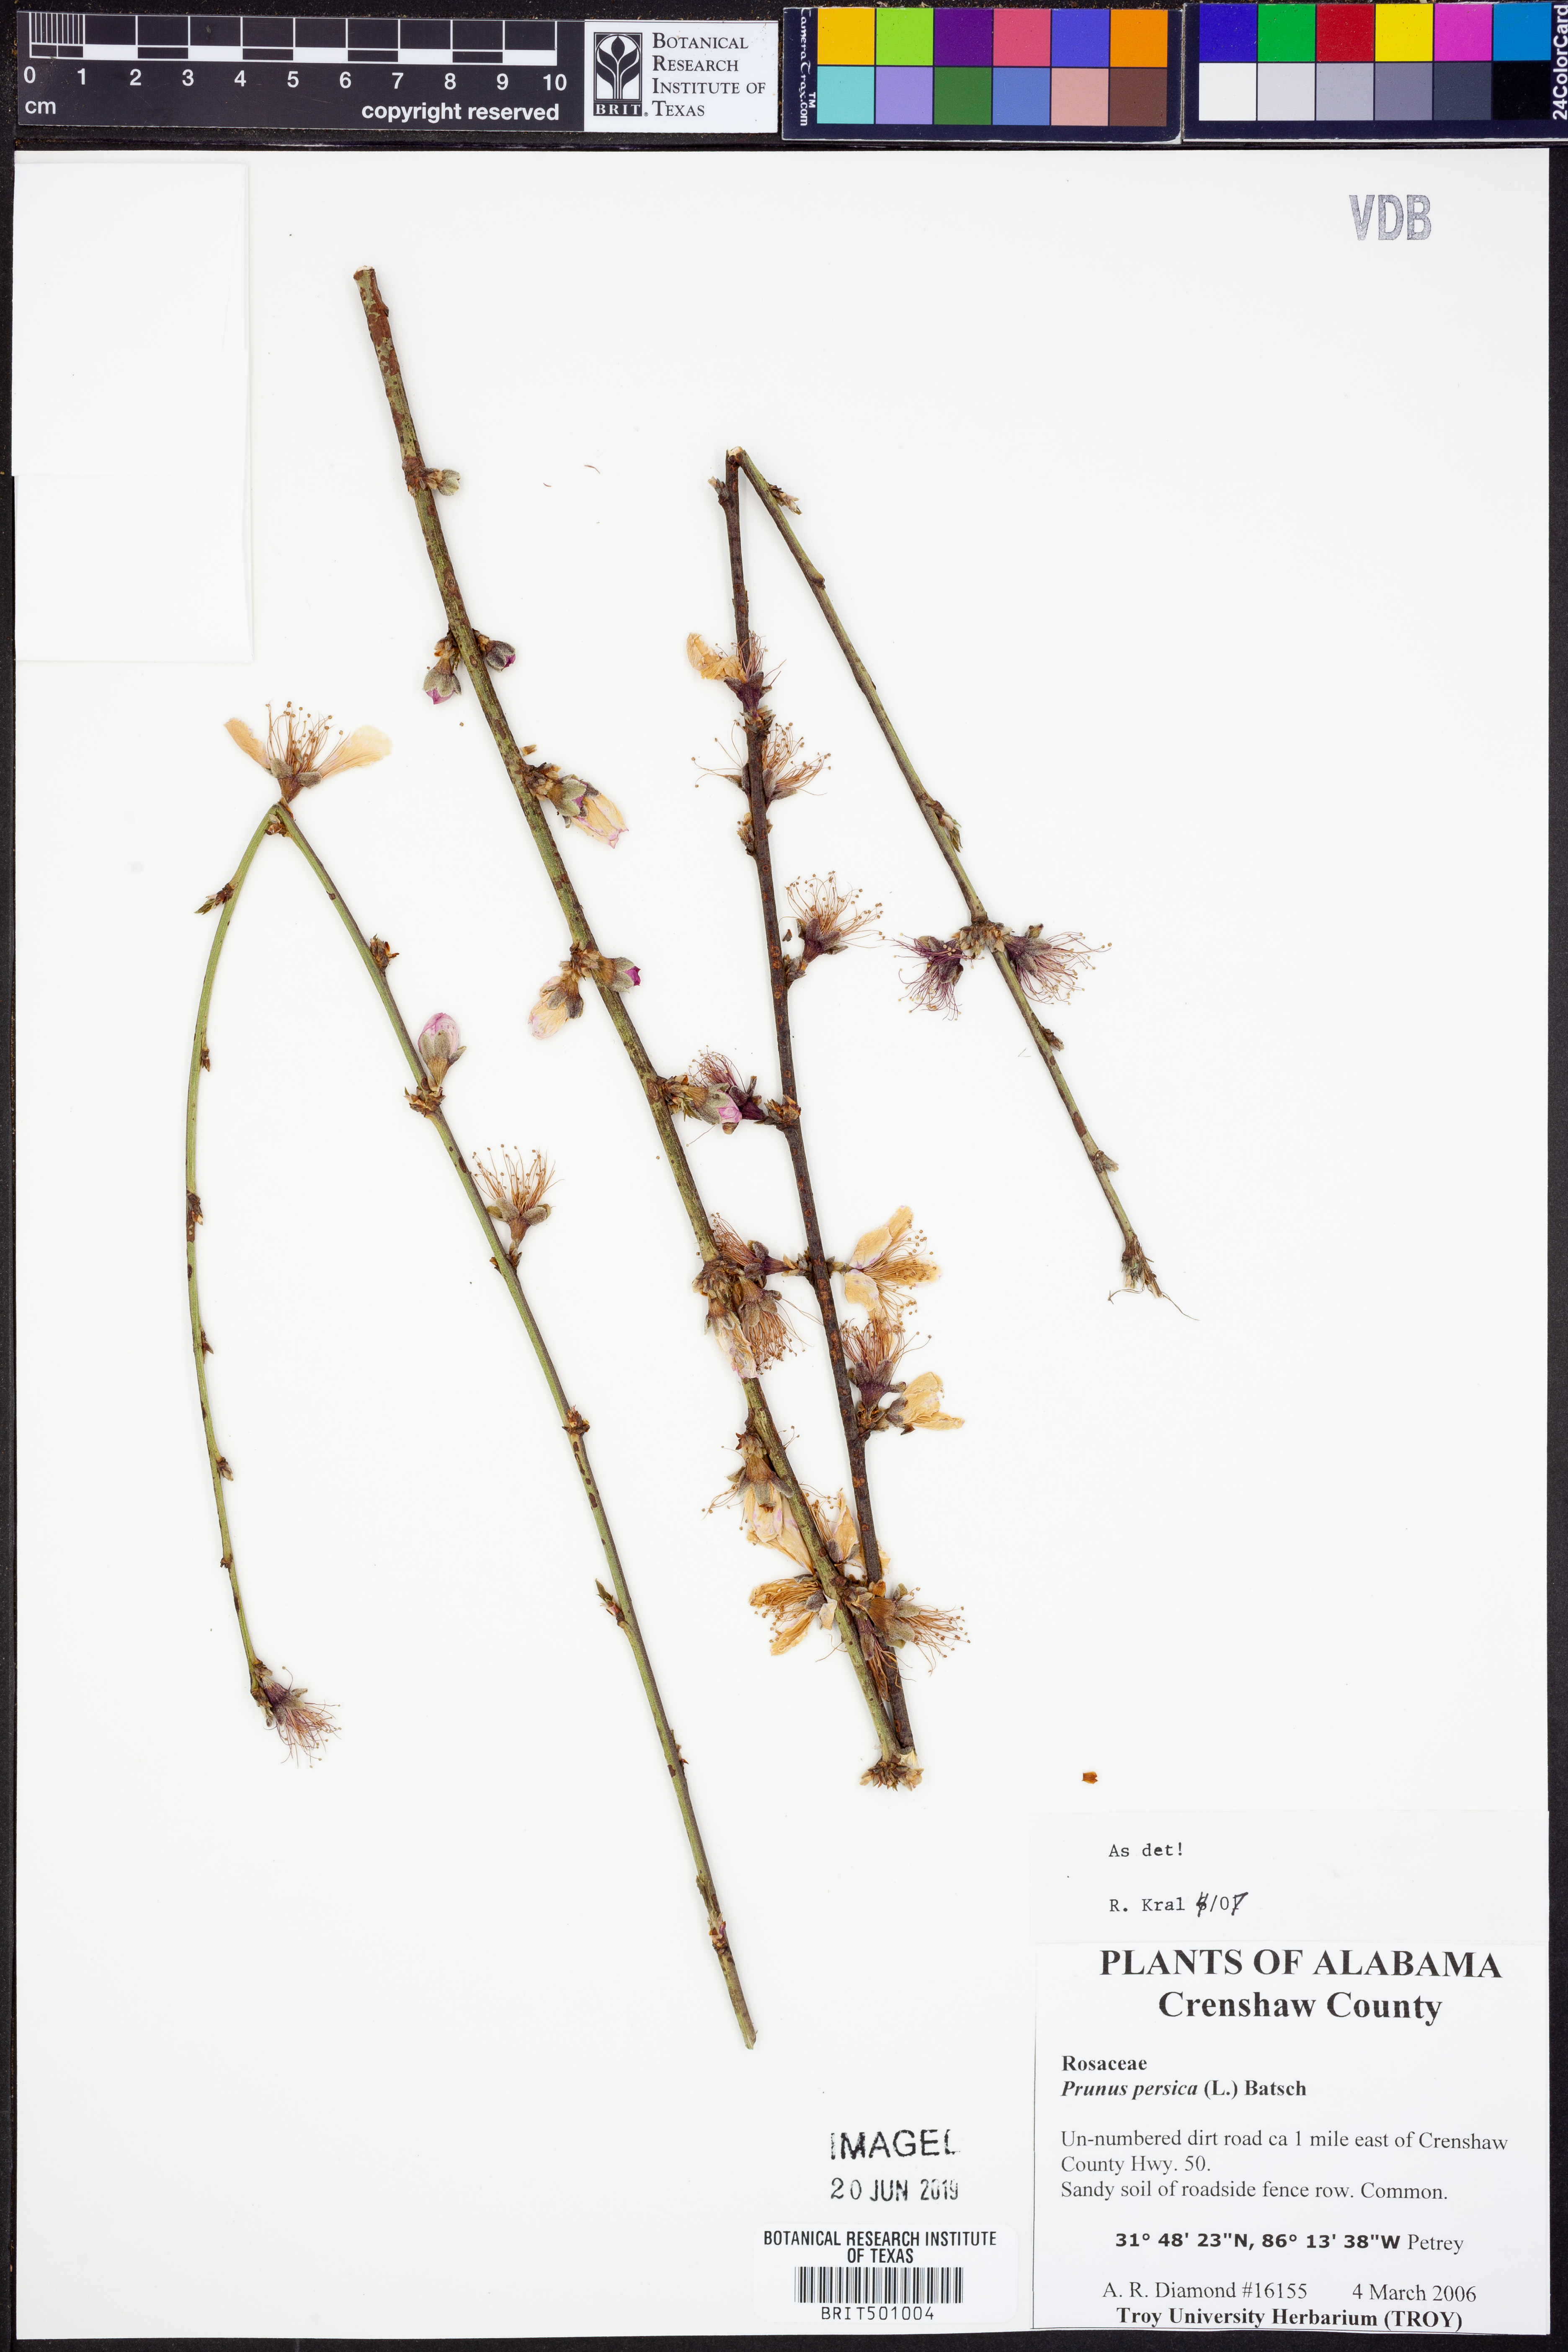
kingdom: Plantae
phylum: Tracheophyta
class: Magnoliopsida
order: Rosales
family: Rosaceae
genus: Prunus
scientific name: Prunus persica
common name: Peach
